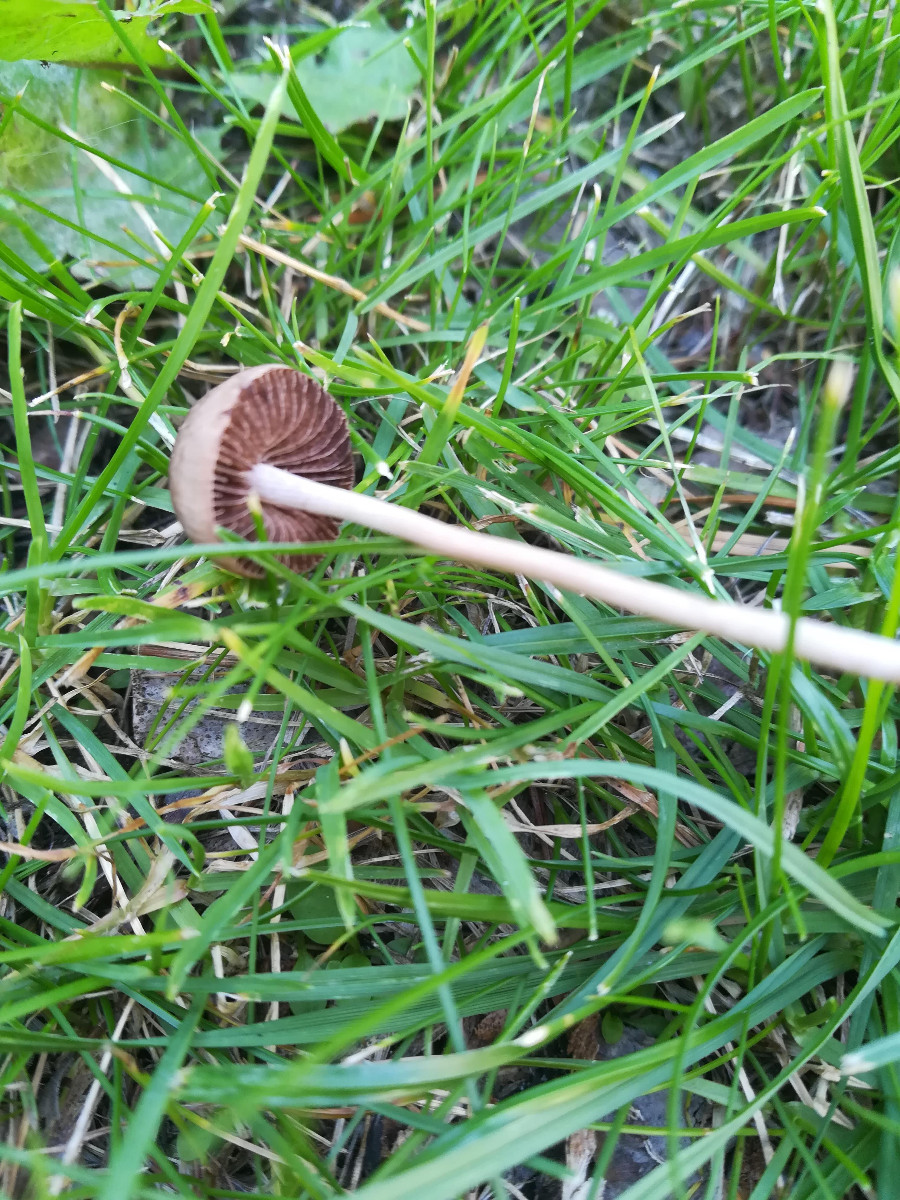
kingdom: Fungi
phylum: Basidiomycota
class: Agaricomycetes
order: Agaricales
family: Bolbitiaceae
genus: Panaeolina
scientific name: Panaeolina foenisecii
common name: høslætsvamp
